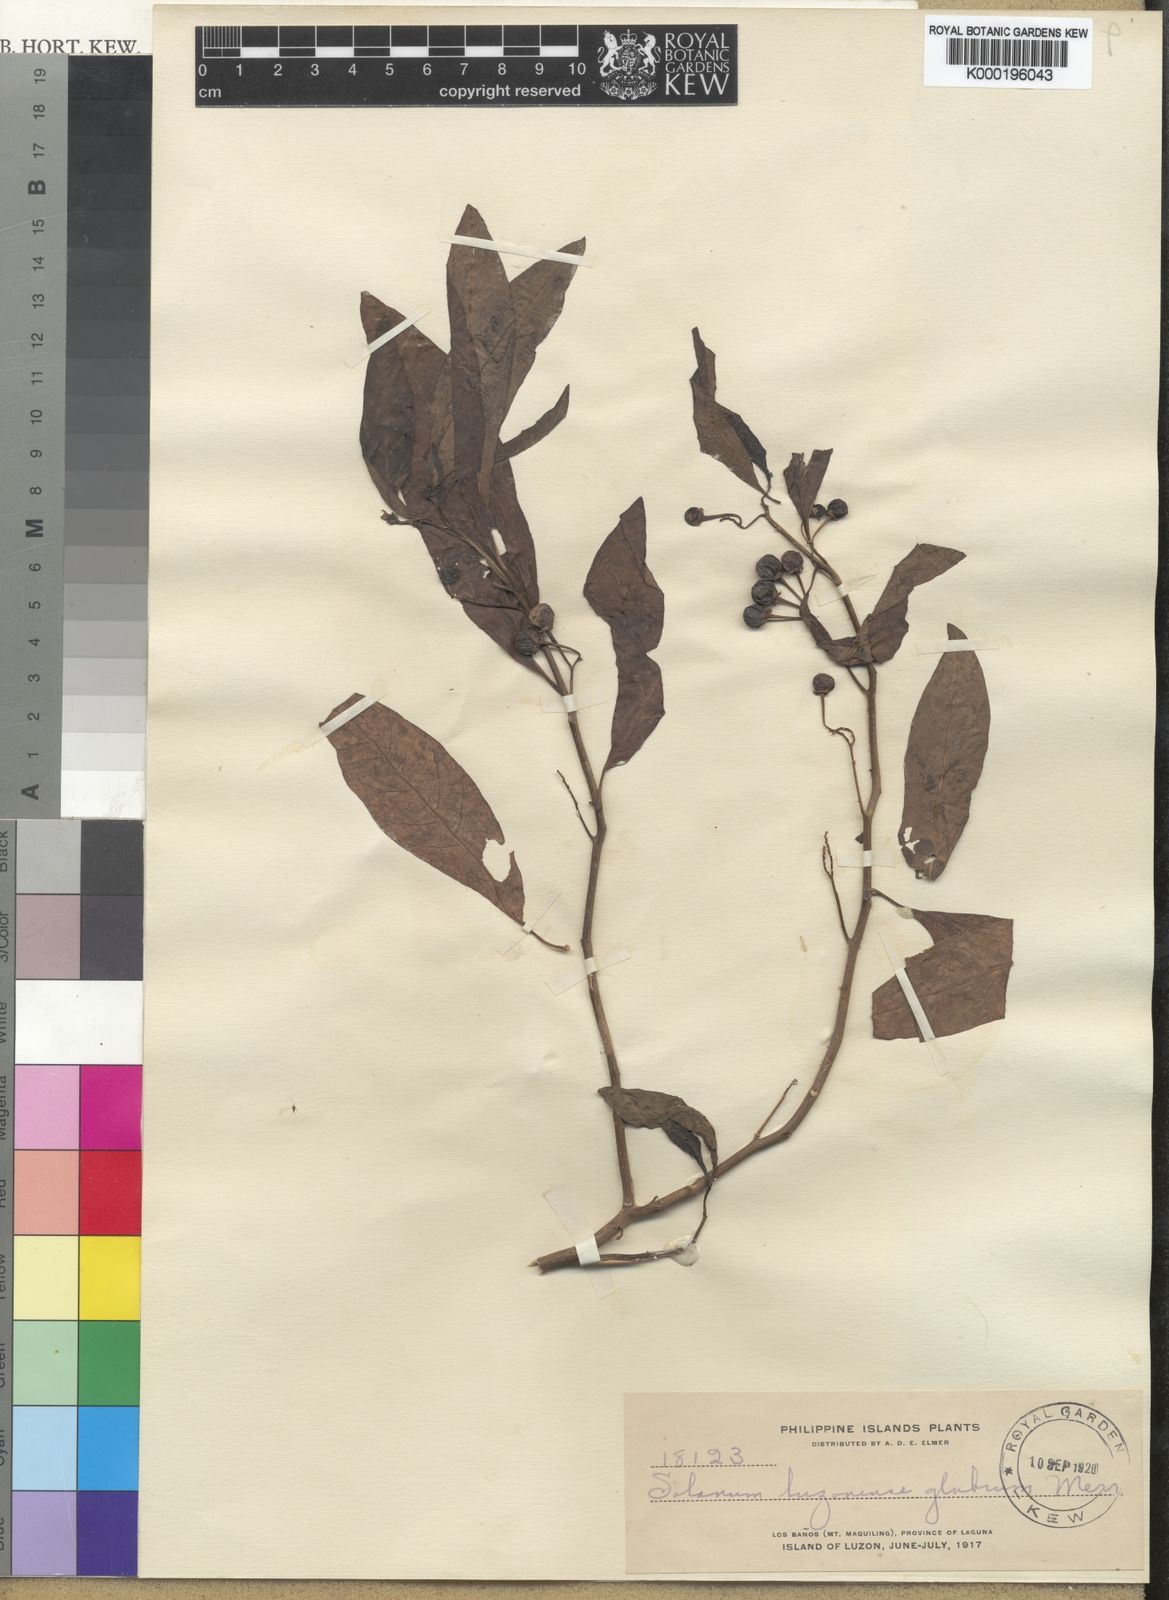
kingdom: Plantae
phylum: Tracheophyta
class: Magnoliopsida
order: Solanales
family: Solanaceae
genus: Solanum
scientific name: Solanum retrorsum
